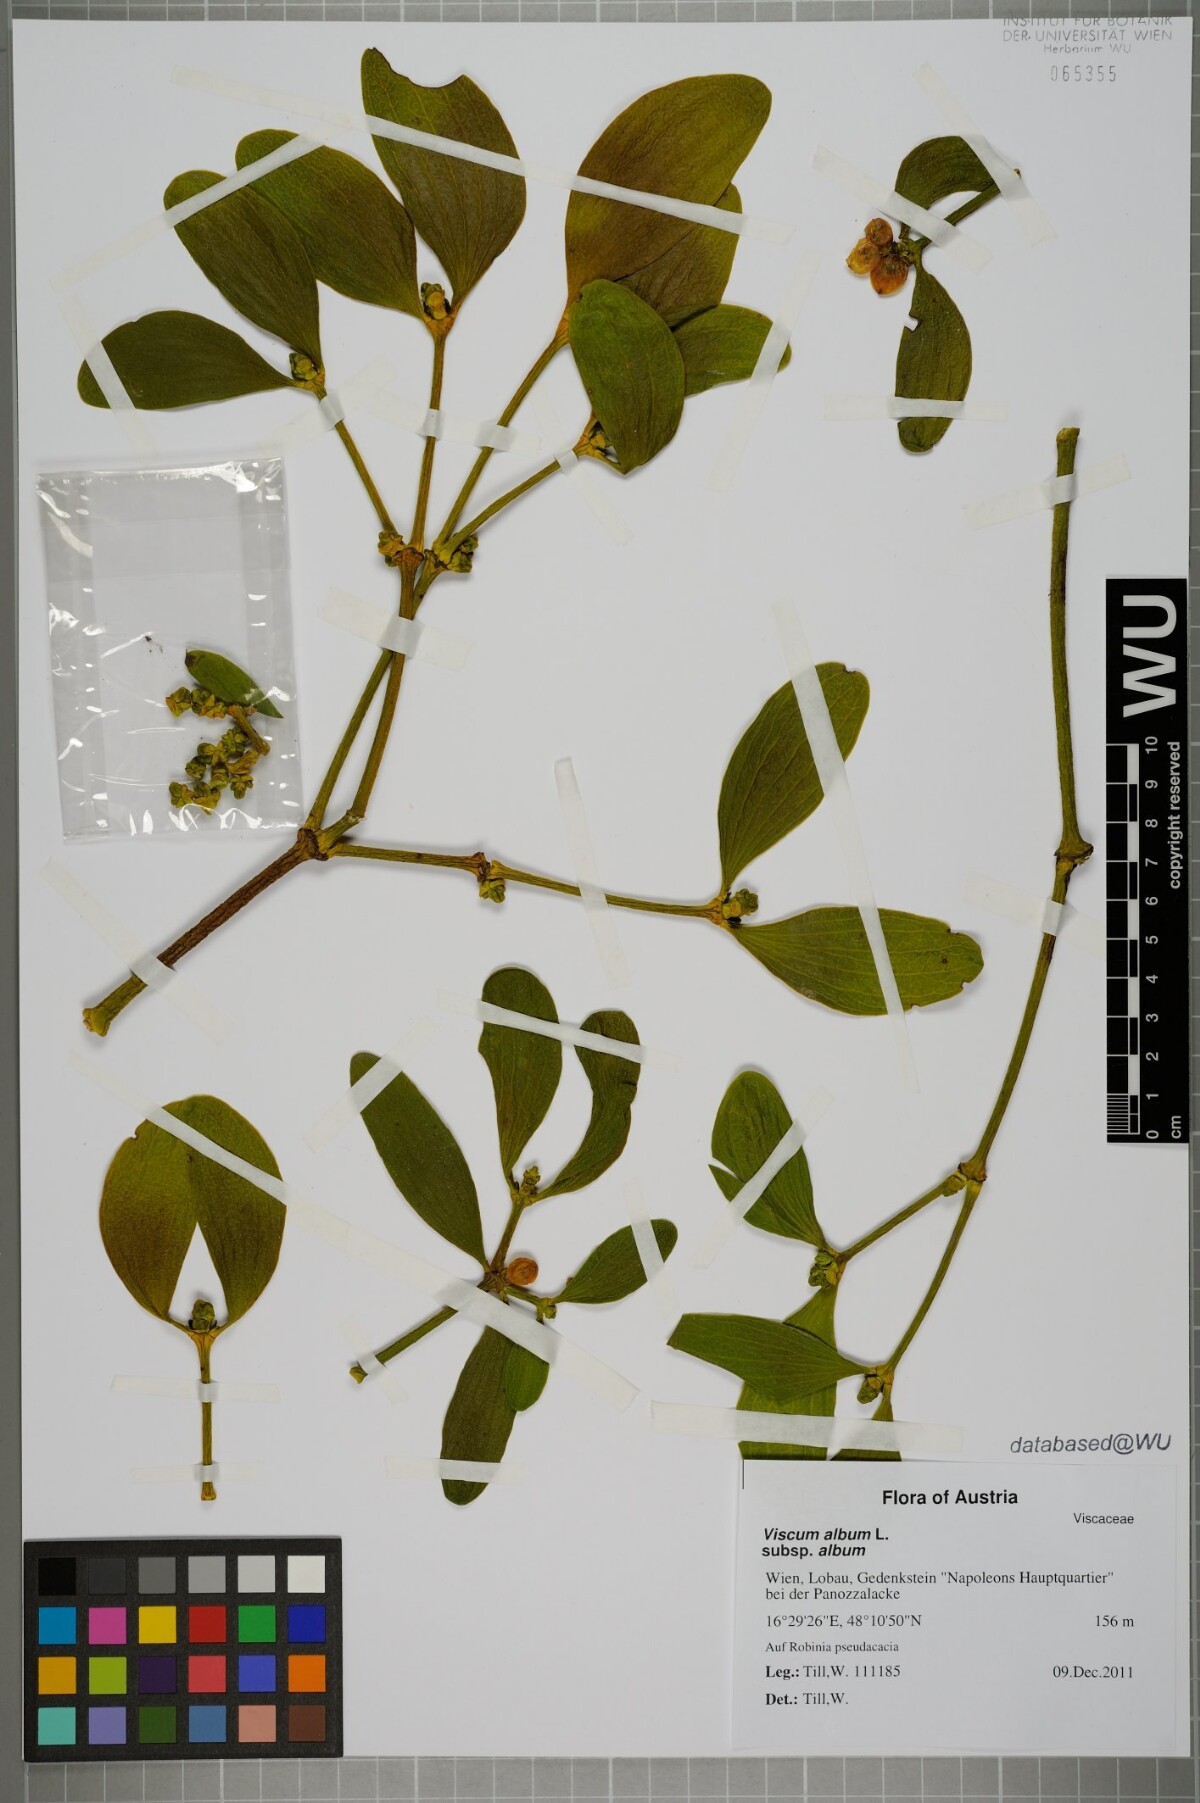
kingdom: Plantae
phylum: Tracheophyta
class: Magnoliopsida
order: Santalales
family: Viscaceae
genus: Viscum
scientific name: Viscum album
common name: Mistletoe
